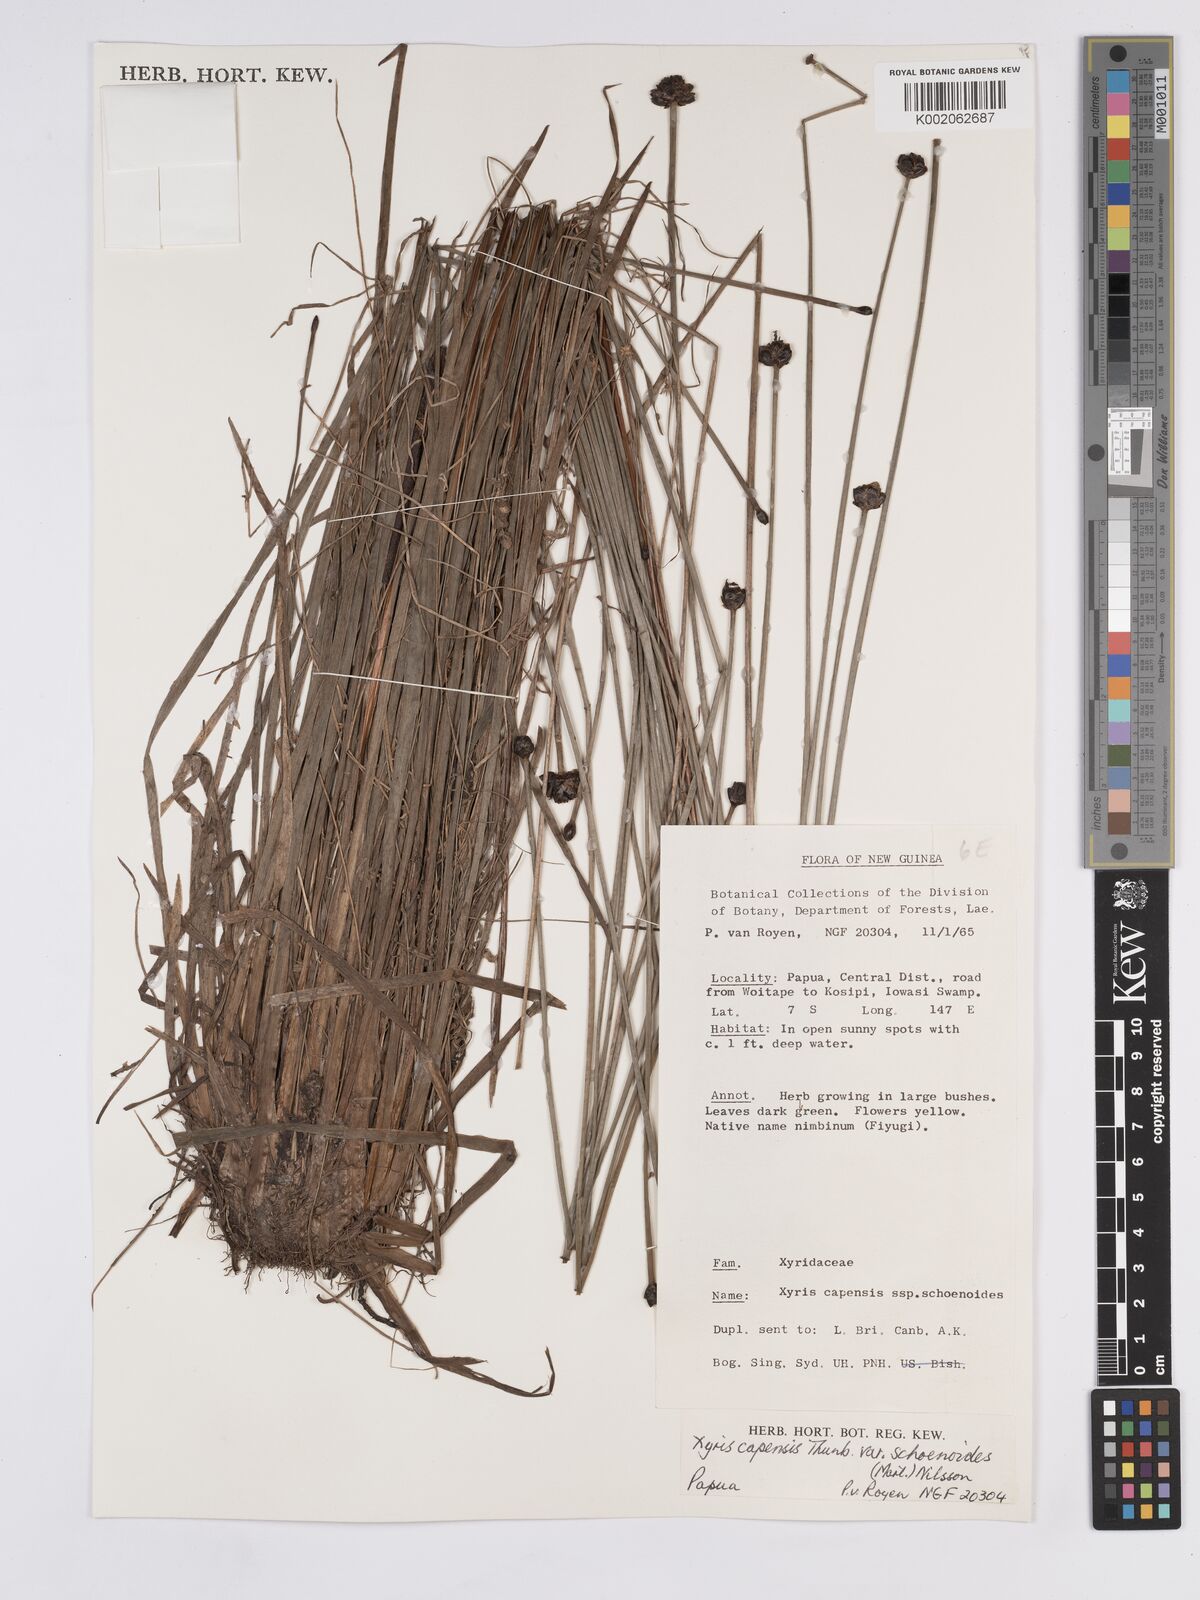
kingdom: Plantae
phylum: Tracheophyta
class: Liliopsida
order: Poales
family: Xyridaceae
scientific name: Xyridaceae
